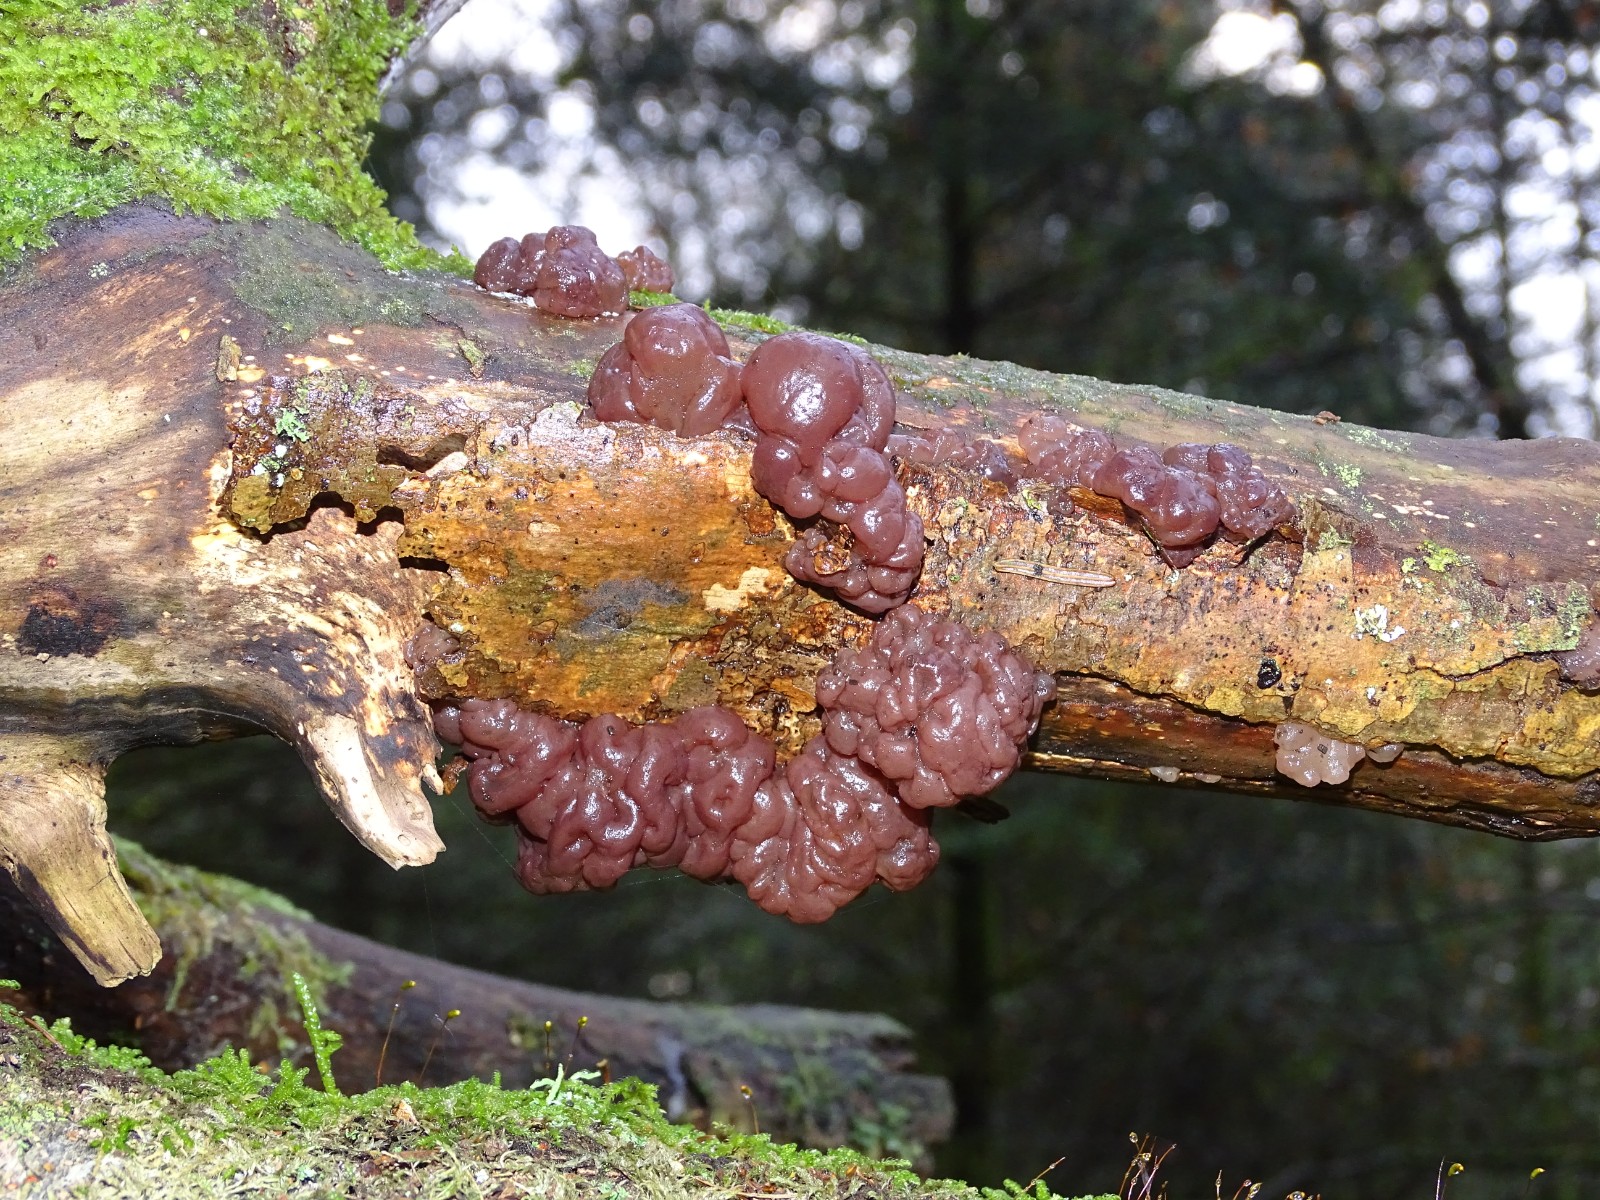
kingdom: Fungi
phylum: Ascomycota
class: Leotiomycetes
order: Helotiales
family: Gelatinodiscaceae
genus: Ascotremella
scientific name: Ascotremella faginea
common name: hjerne-bævreskive
